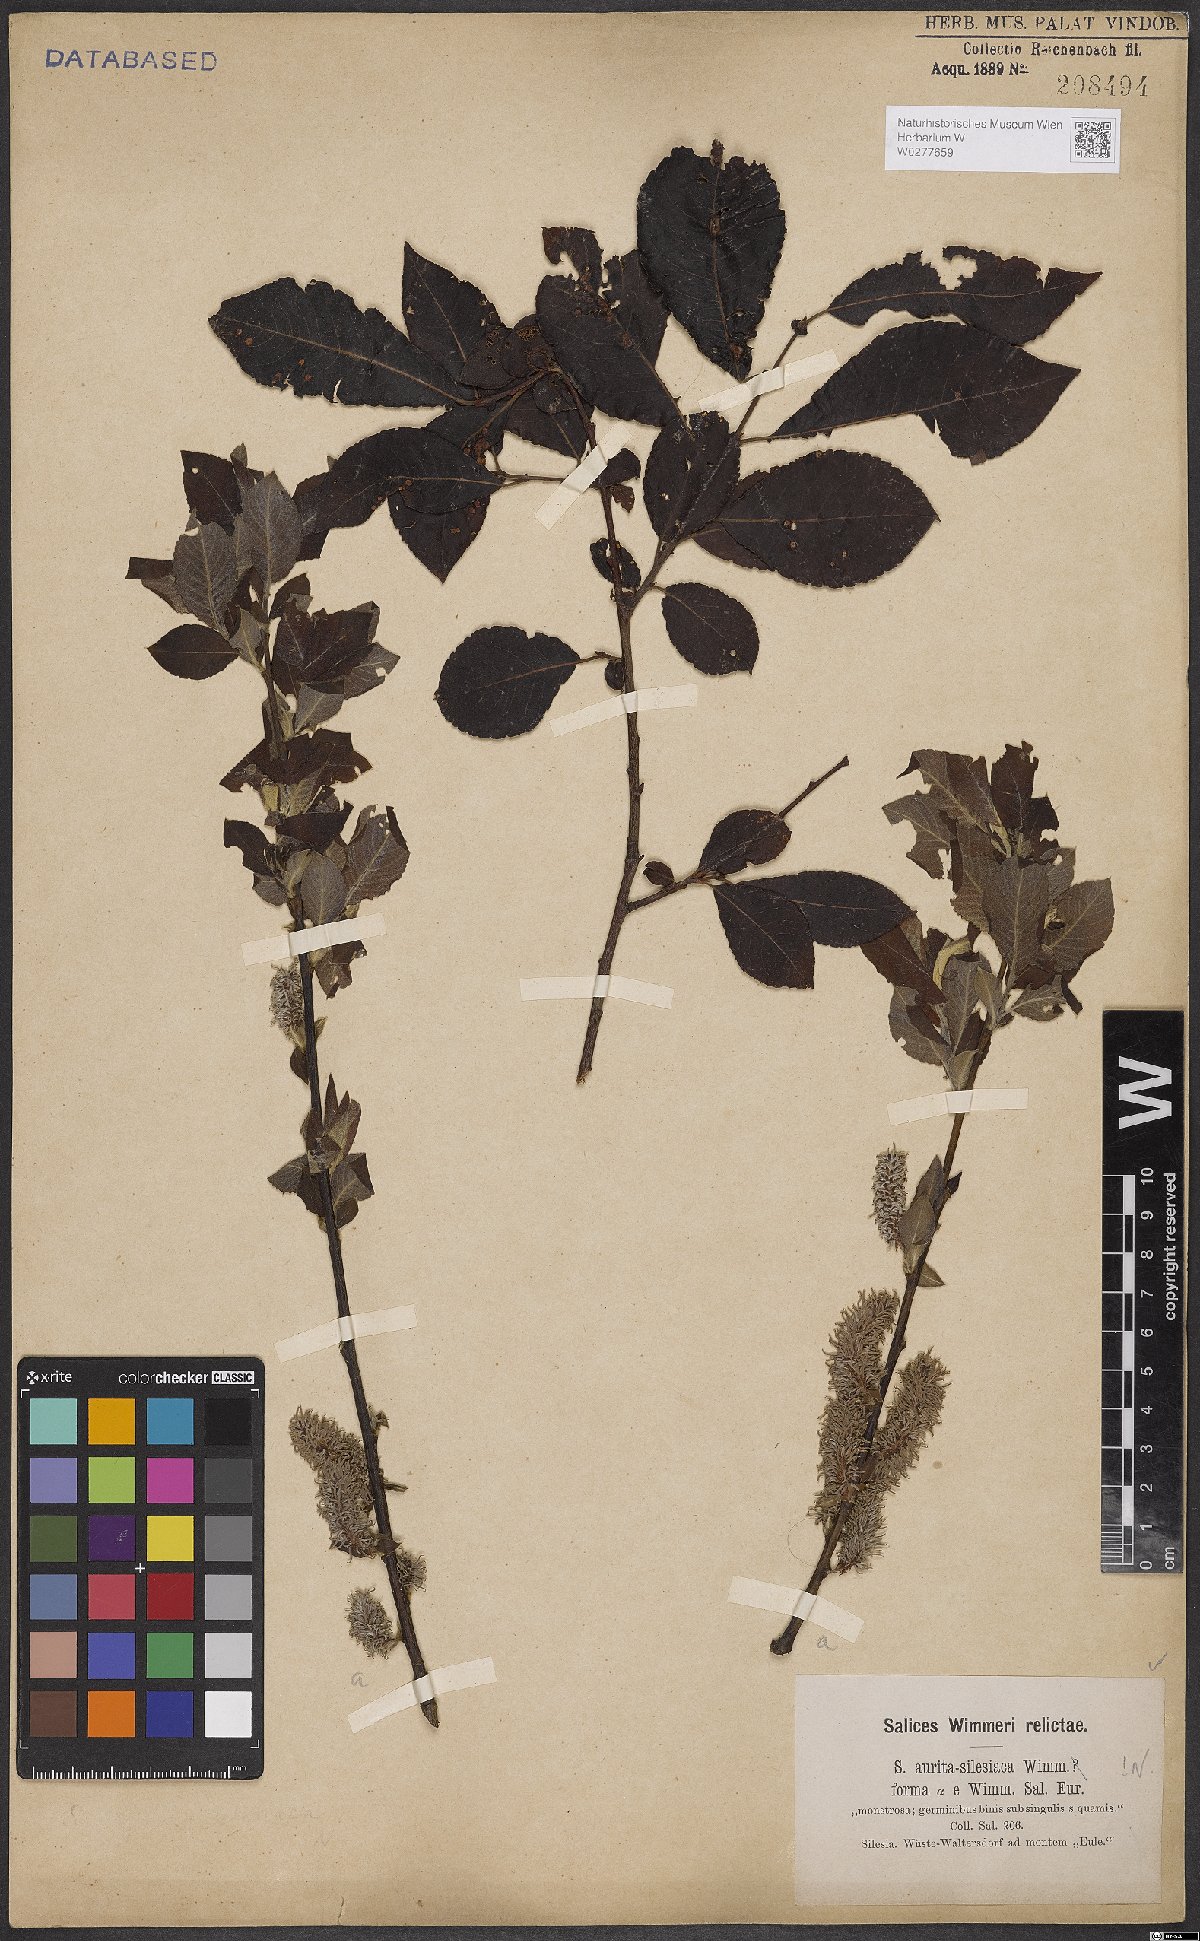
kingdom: Plantae
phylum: Tracheophyta
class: Magnoliopsida
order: Malpighiales
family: Salicaceae
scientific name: Salicaceae
